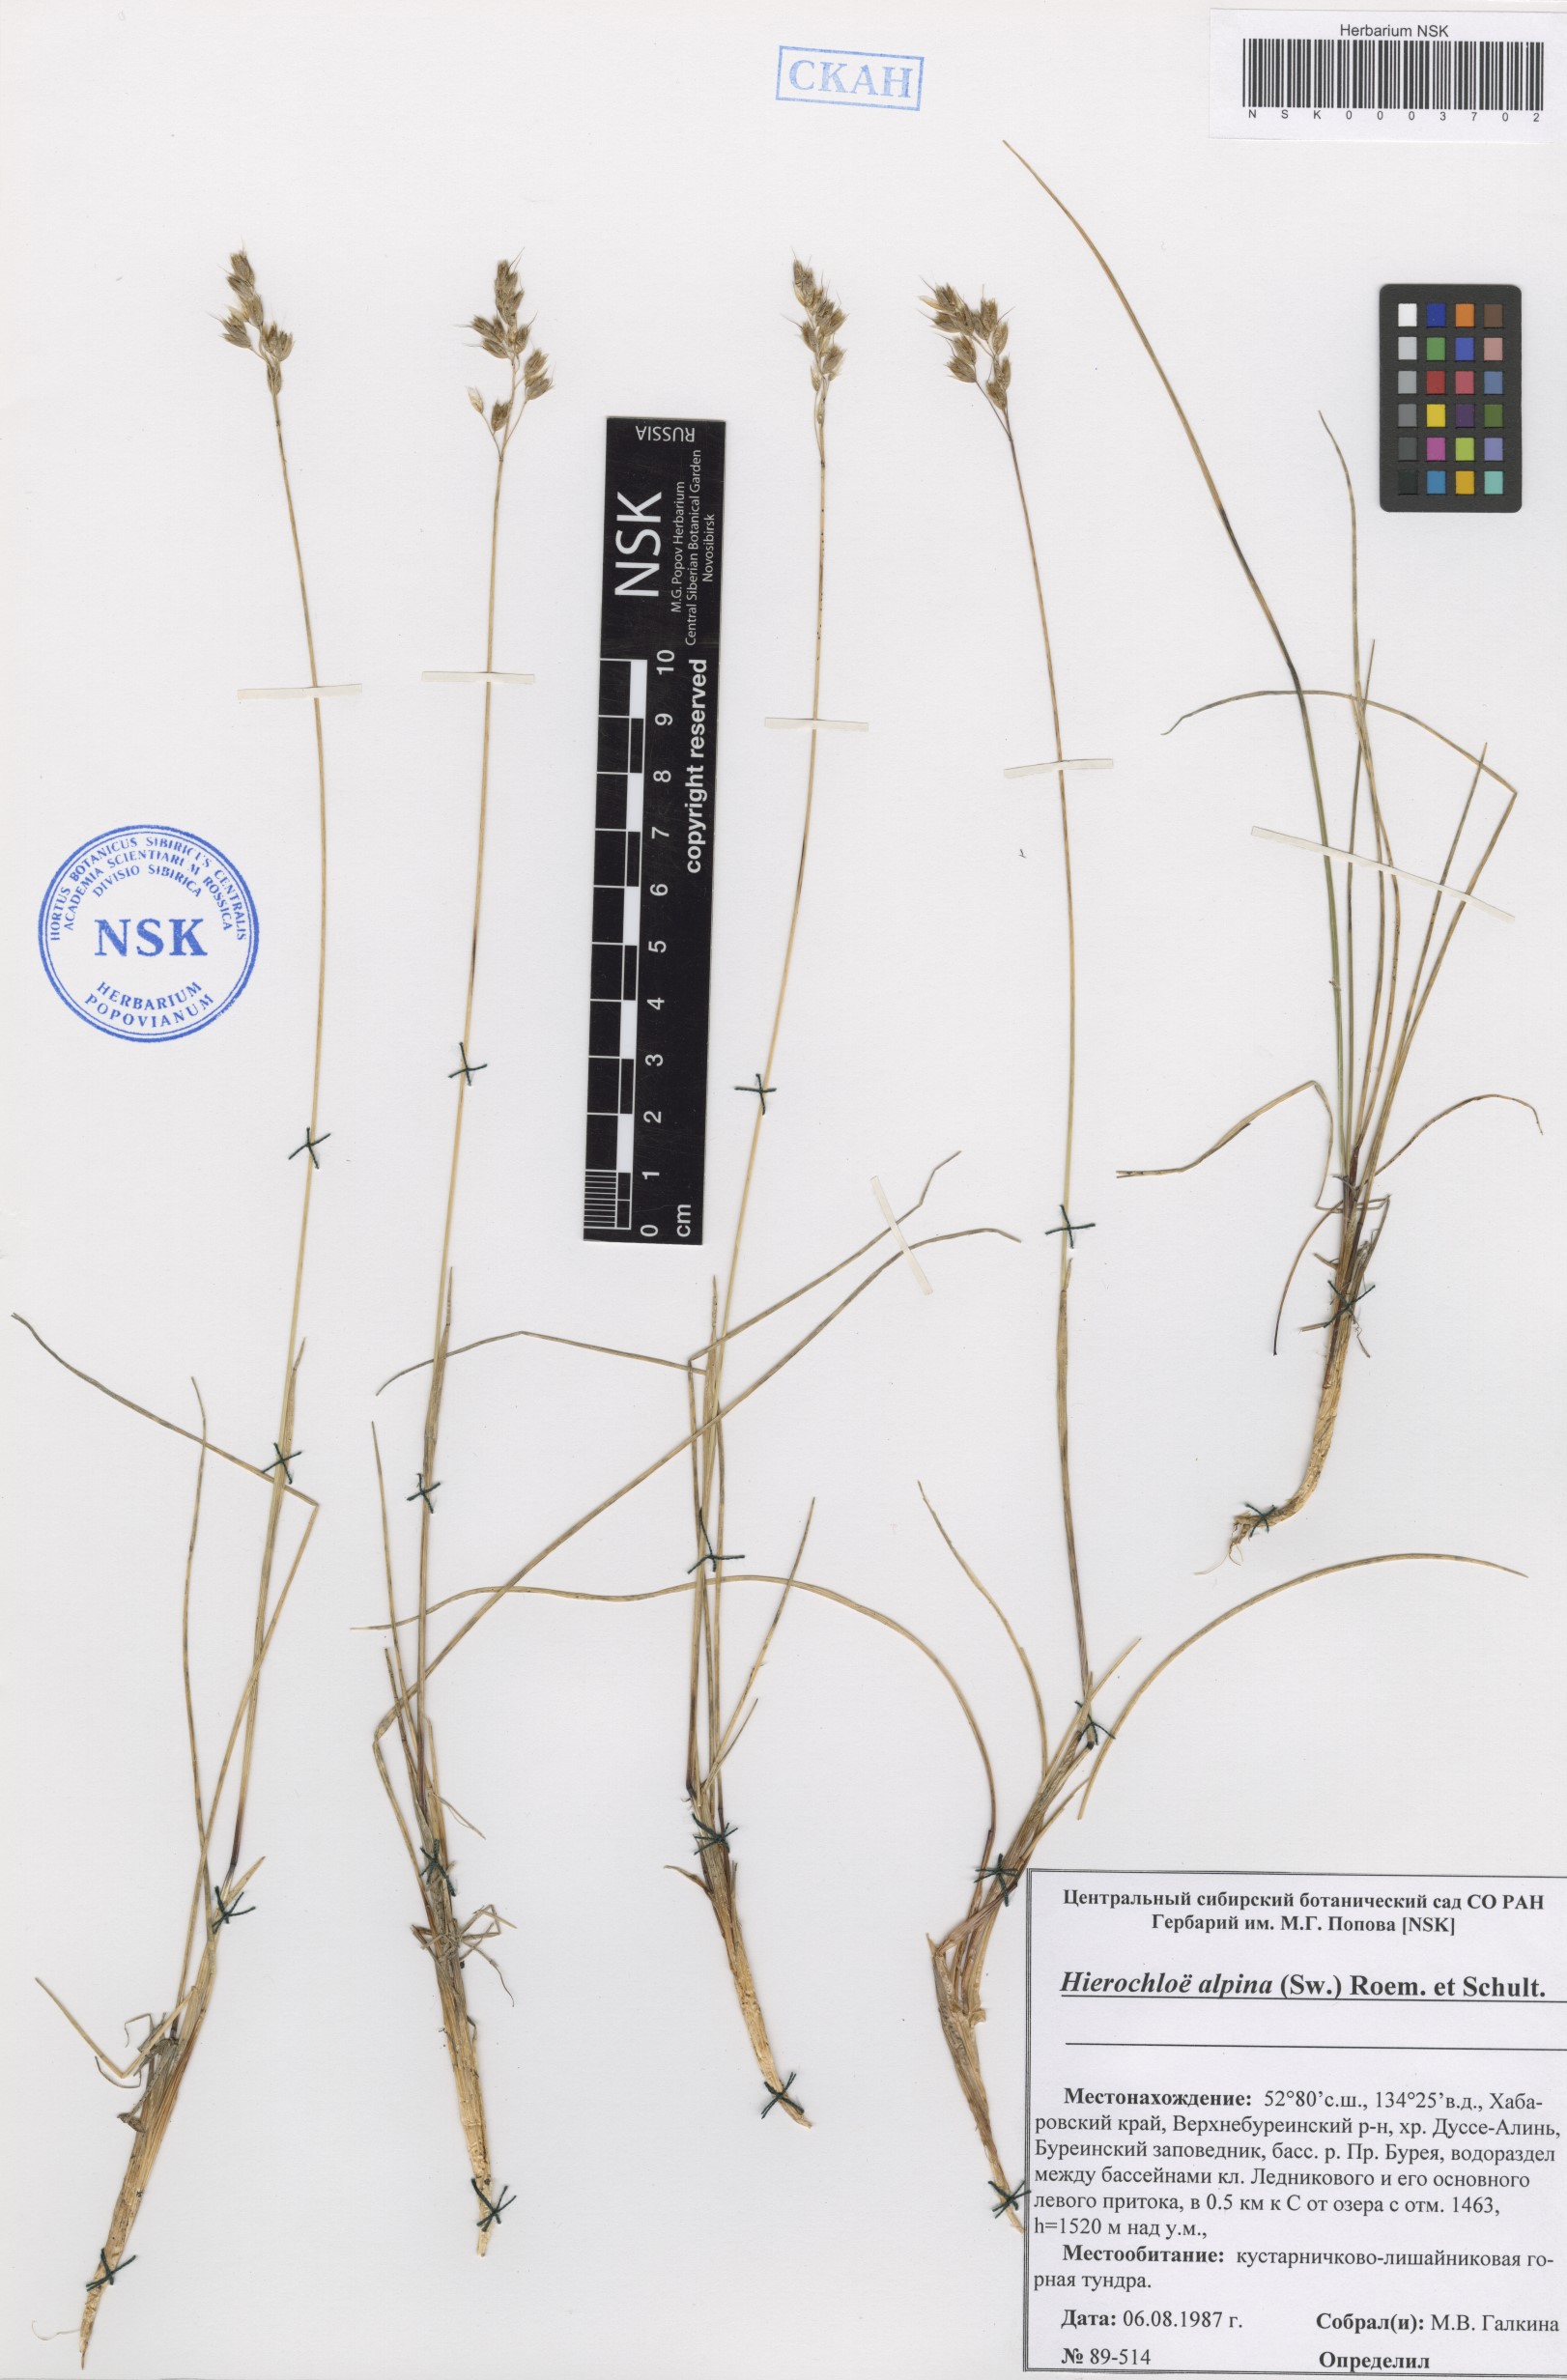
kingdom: Plantae
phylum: Tracheophyta
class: Liliopsida
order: Poales
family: Poaceae
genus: Anthoxanthum
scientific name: Anthoxanthum monticola
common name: Alpine sweetgrass
